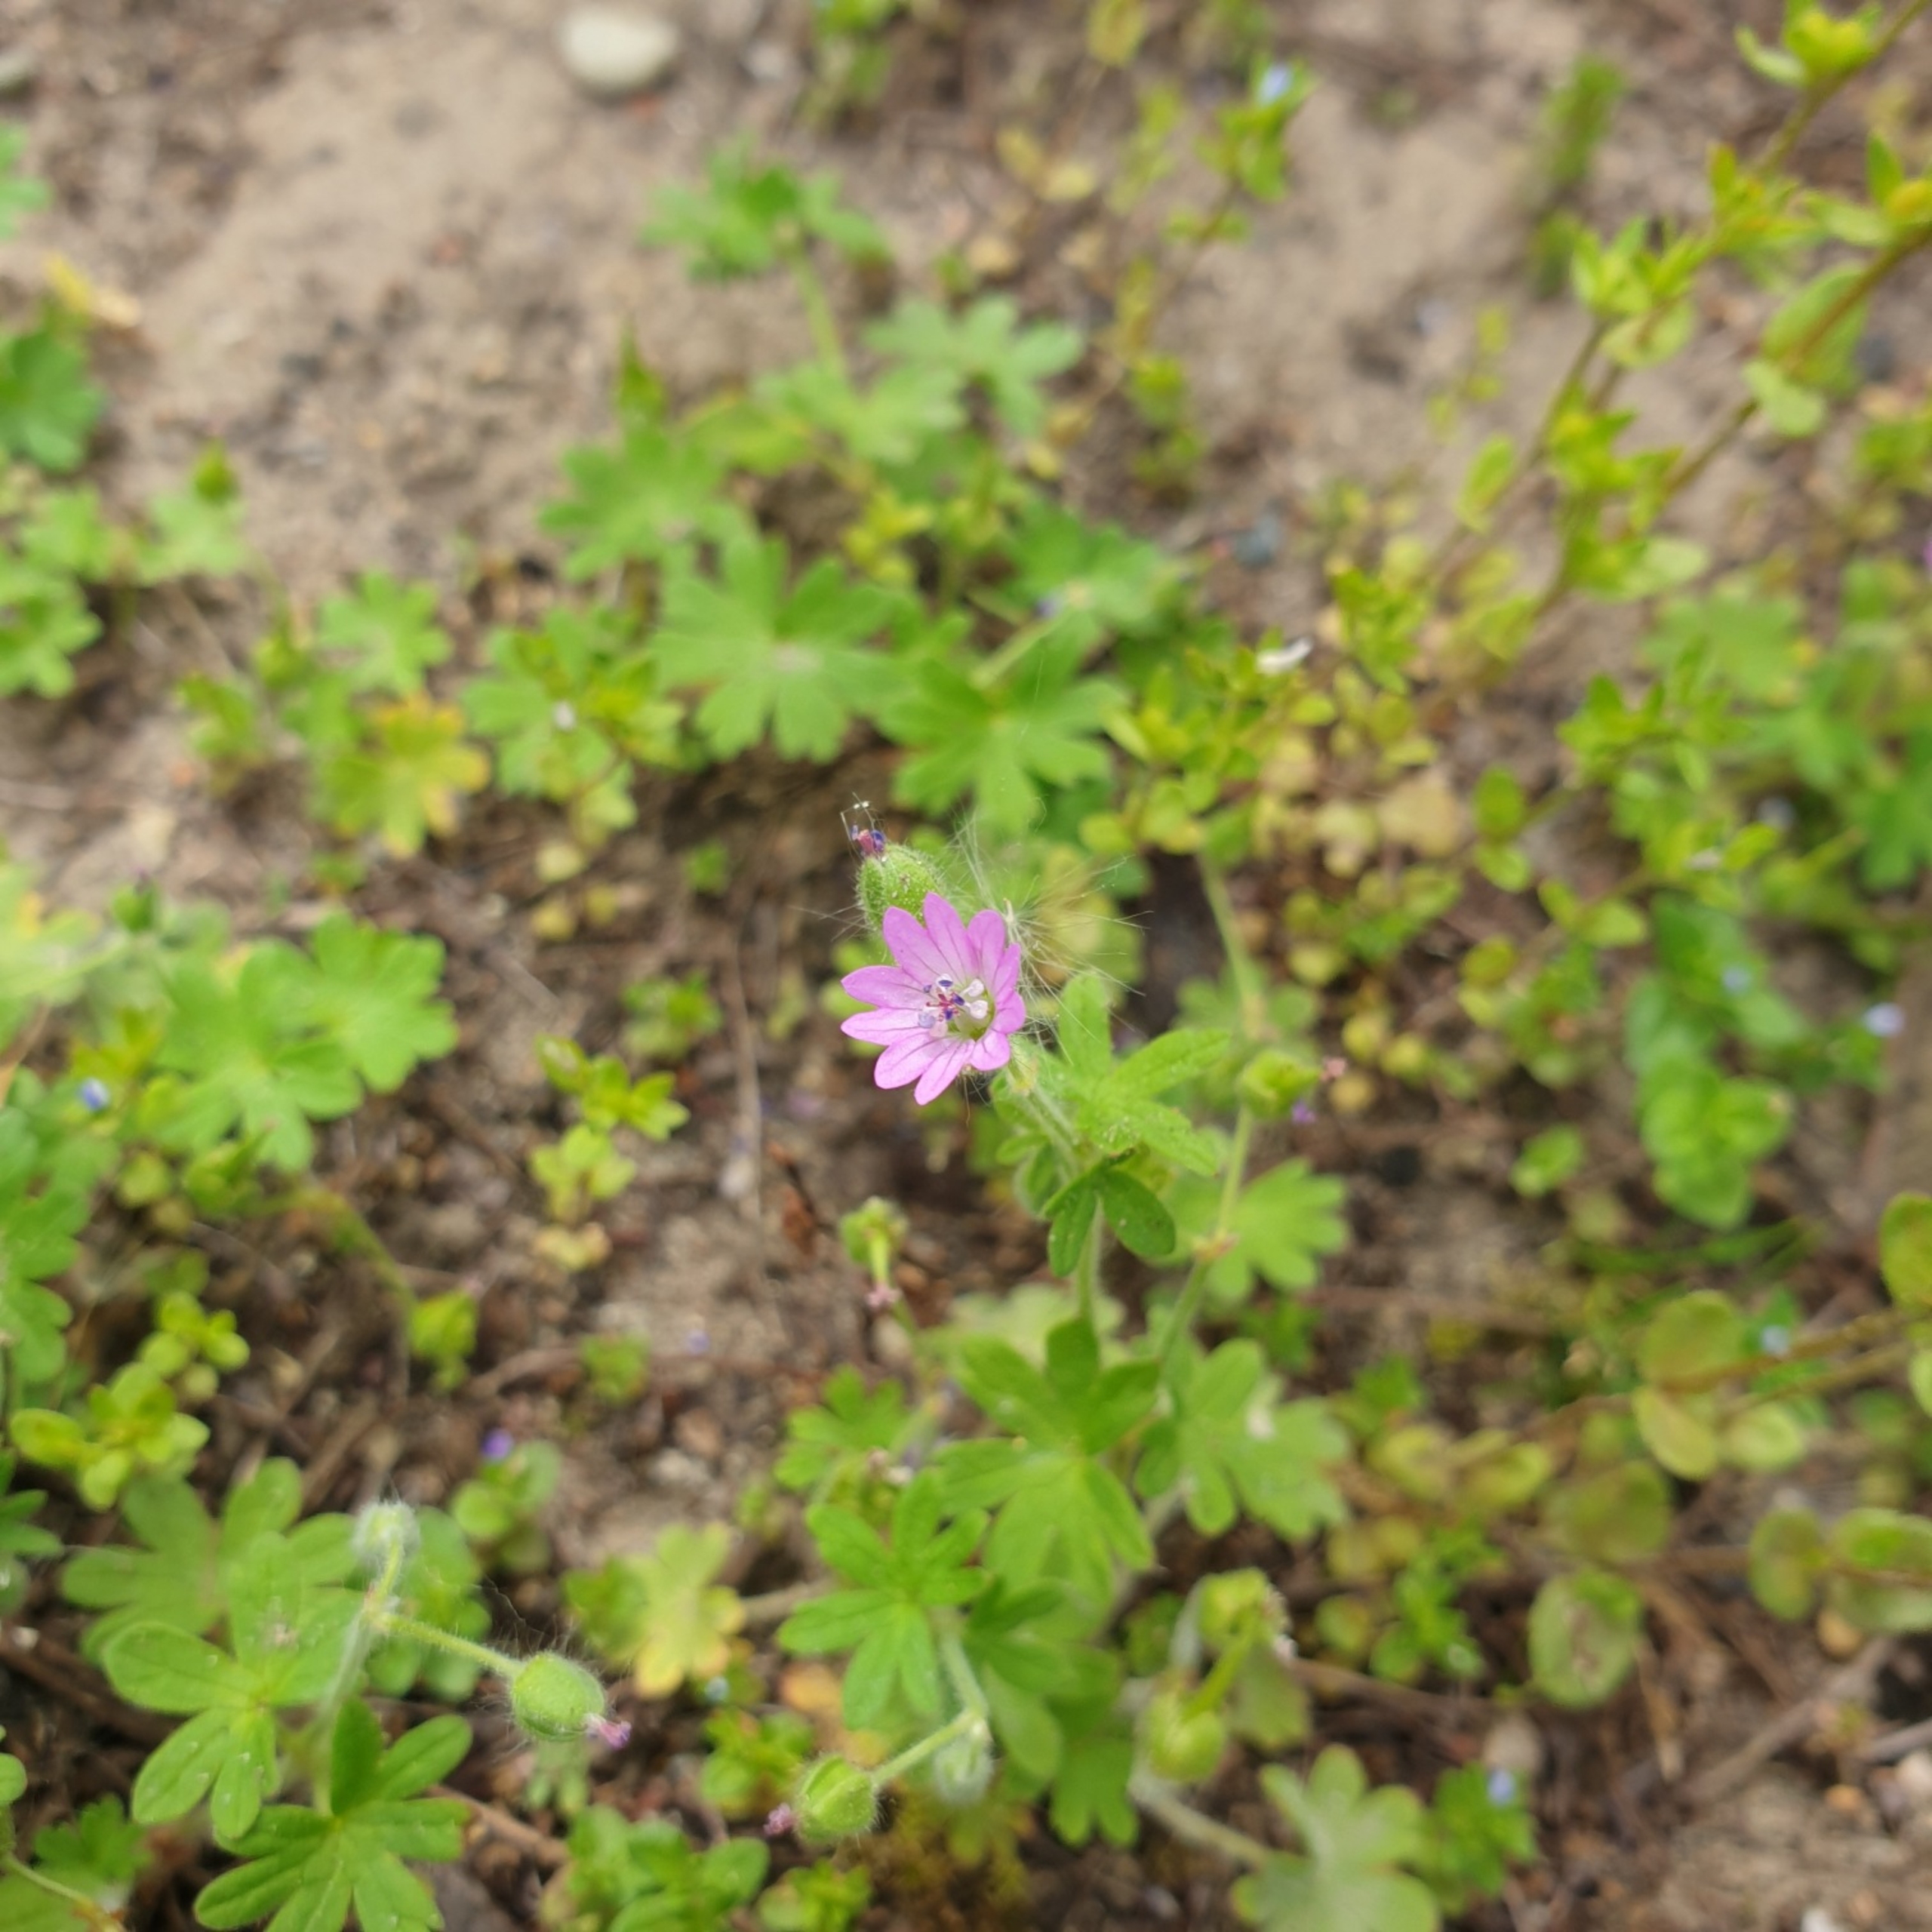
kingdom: Plantae
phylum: Tracheophyta
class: Magnoliopsida
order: Geraniales
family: Geraniaceae
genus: Geranium
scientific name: Geranium molle
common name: Blød storkenæb
